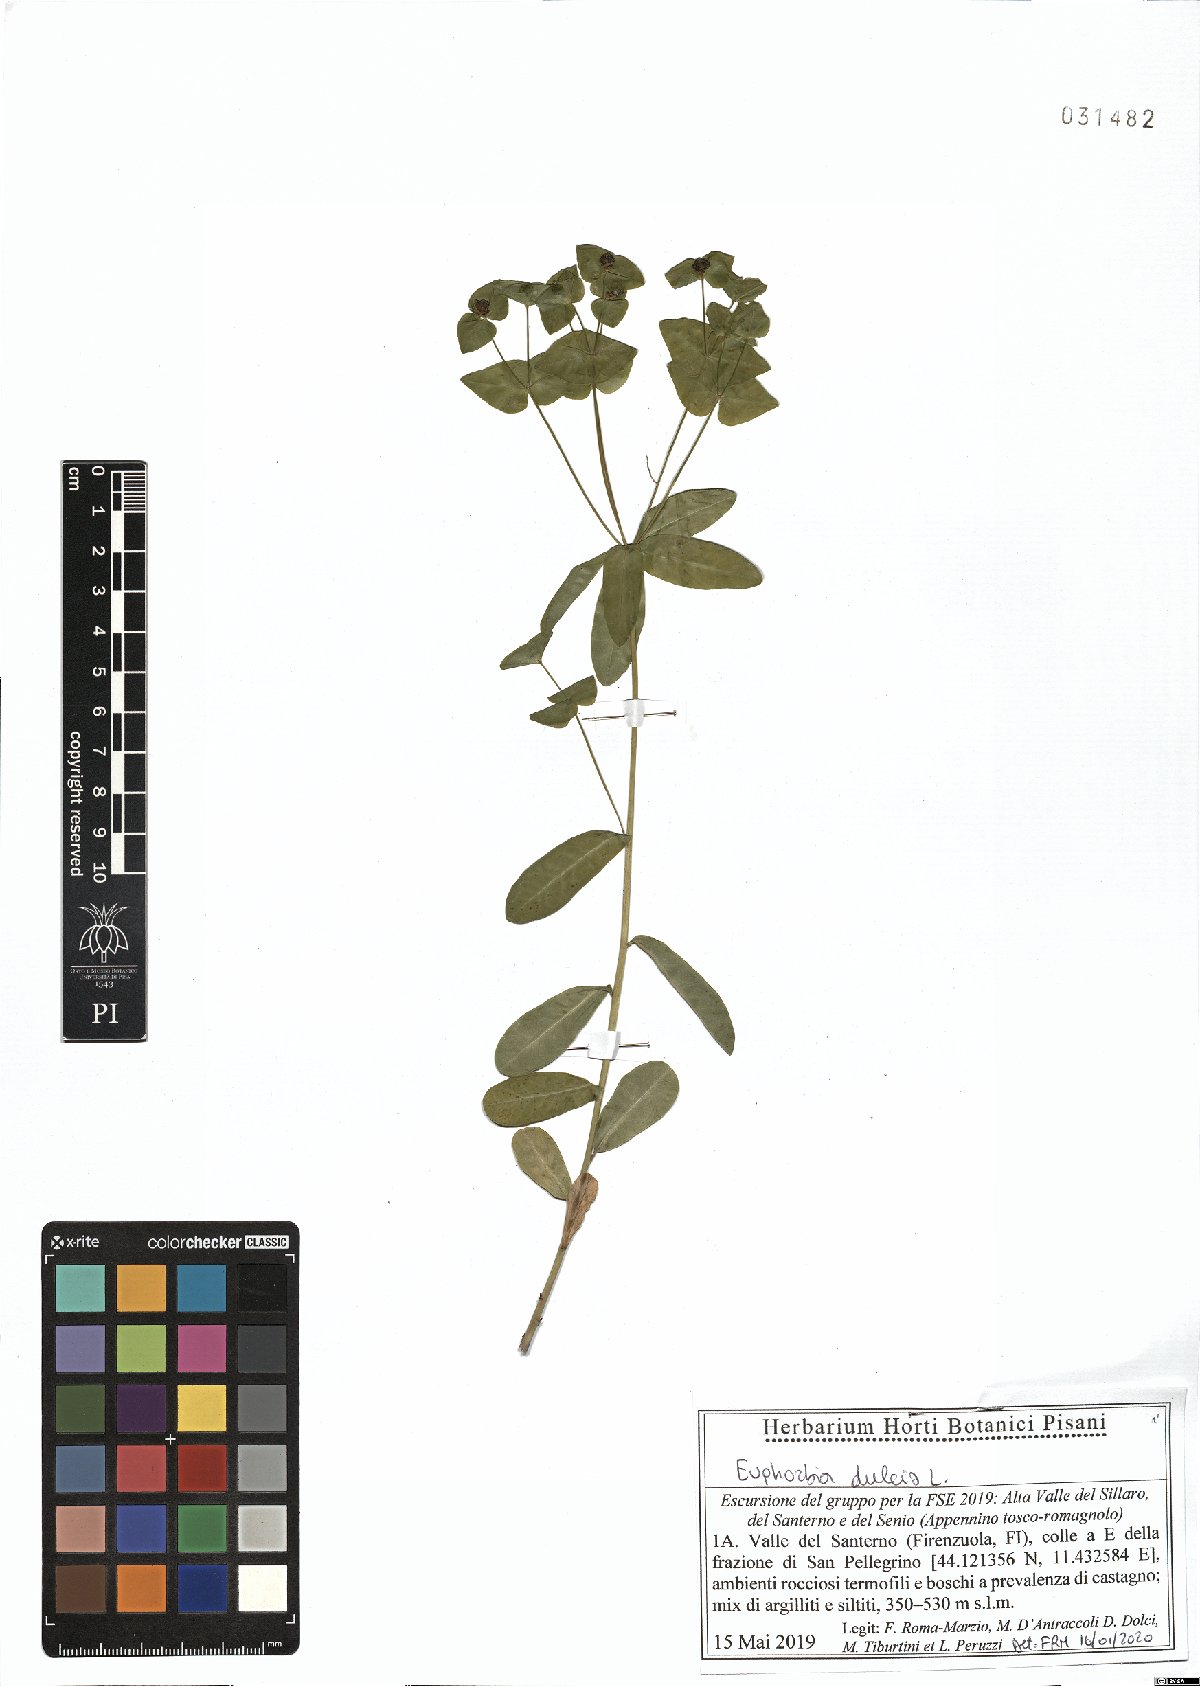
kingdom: Plantae
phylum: Tracheophyta
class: Magnoliopsida
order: Malpighiales
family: Euphorbiaceae
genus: Euphorbia
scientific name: Euphorbia dulcis
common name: Sweet spurge
